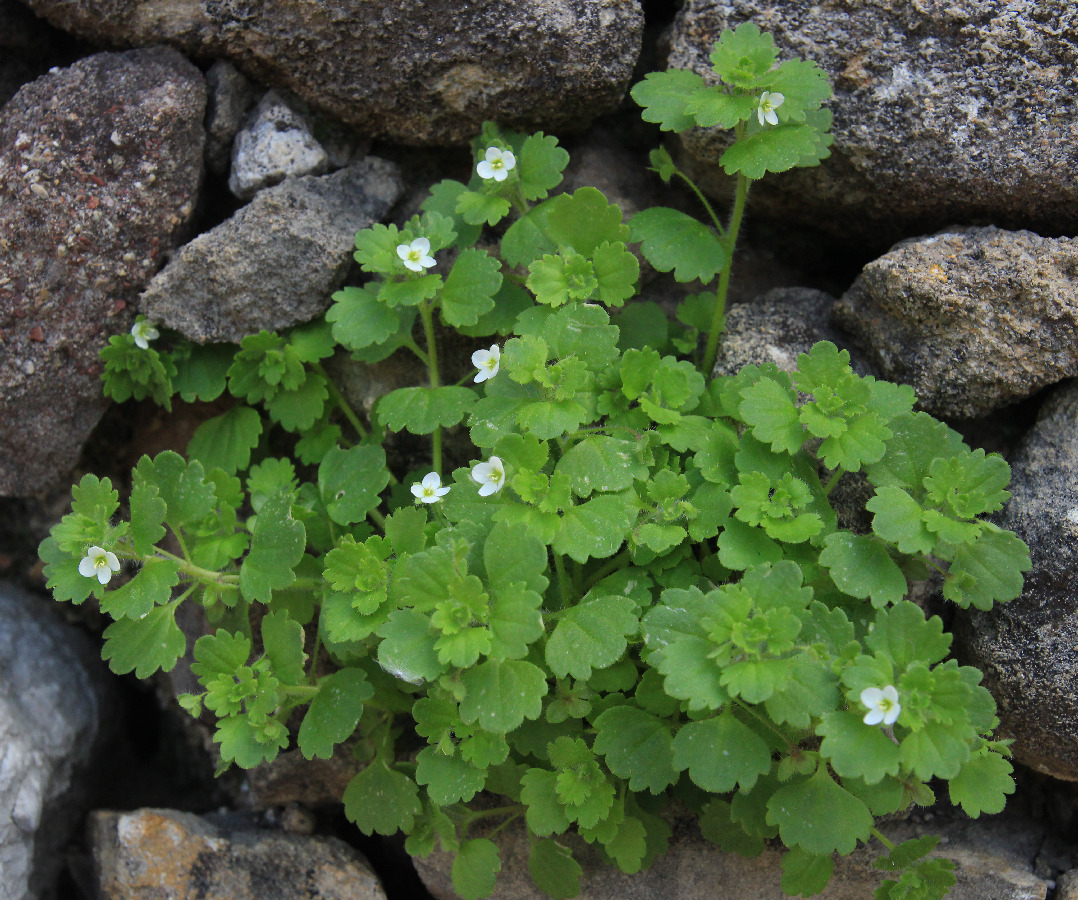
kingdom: Plantae
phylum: Tracheophyta
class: Magnoliopsida
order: Lamiales
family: Plantaginaceae
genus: Veronica
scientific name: Veronica cymbalaria
